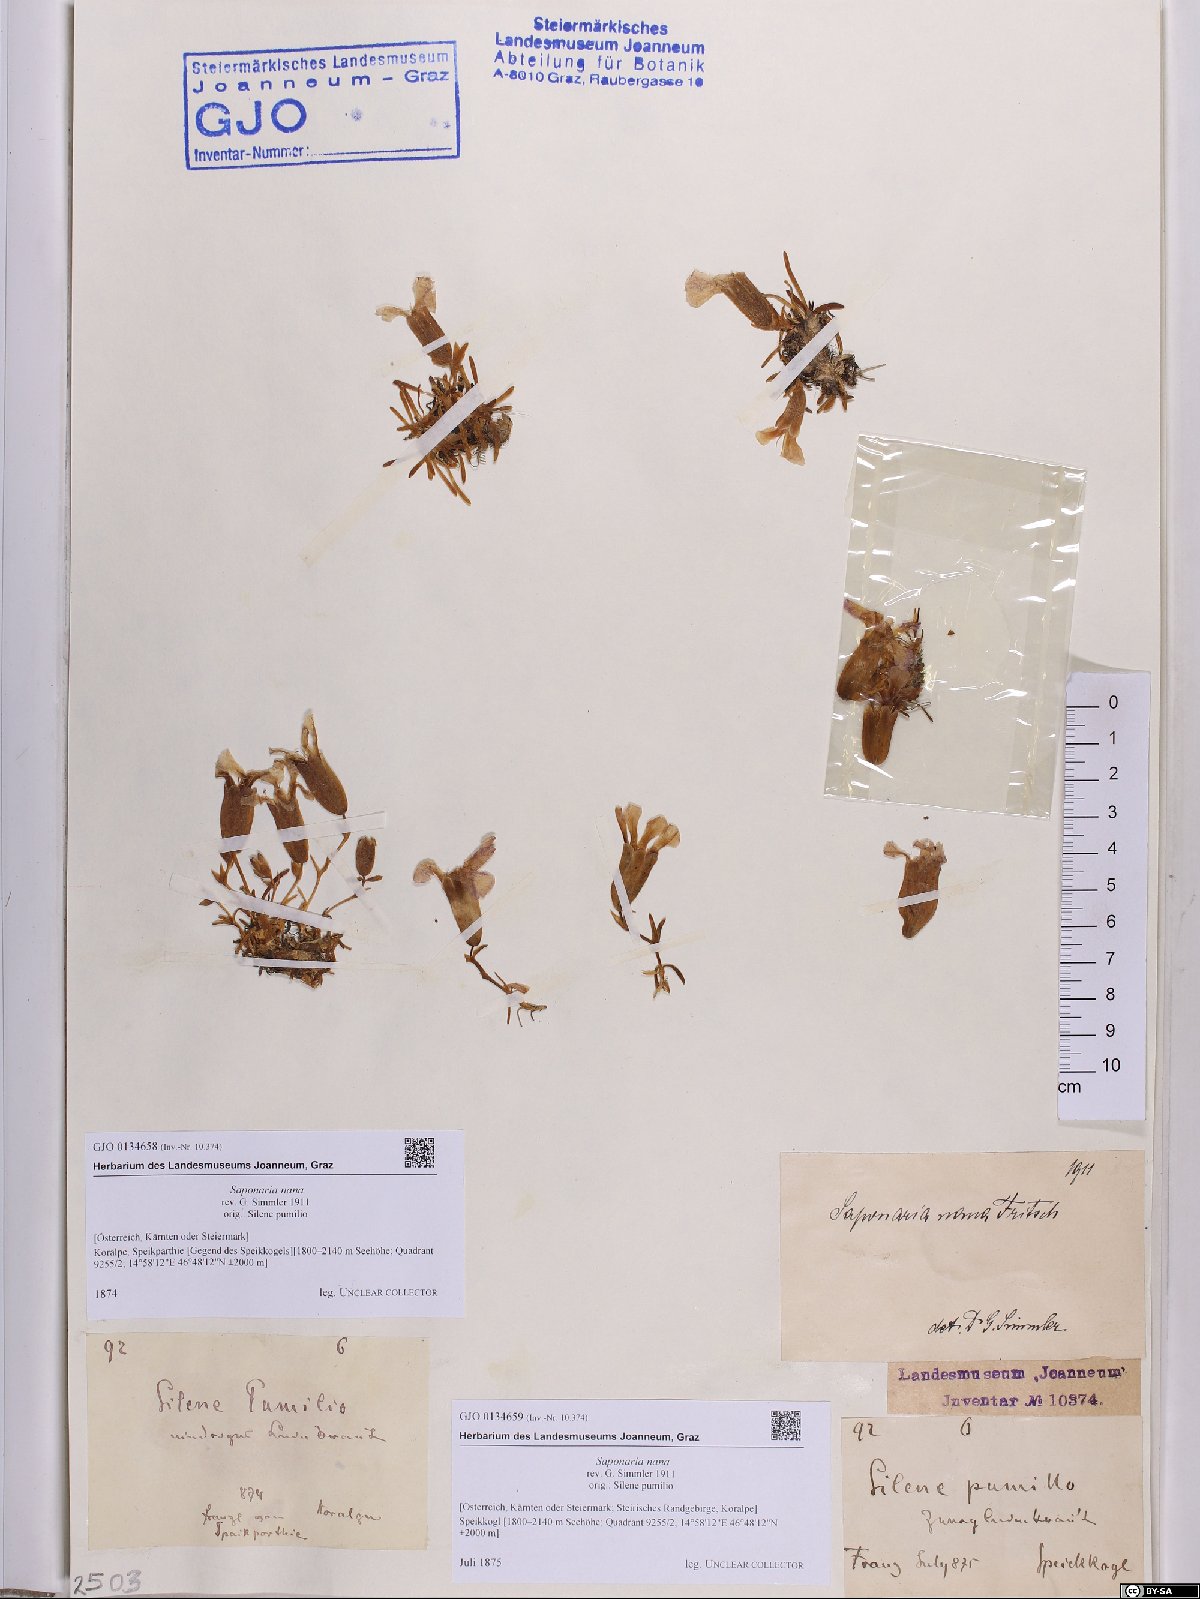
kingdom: Plantae
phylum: Tracheophyta
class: Magnoliopsida
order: Caryophyllales
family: Caryophyllaceae
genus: Saponaria
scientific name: Saponaria pumila
